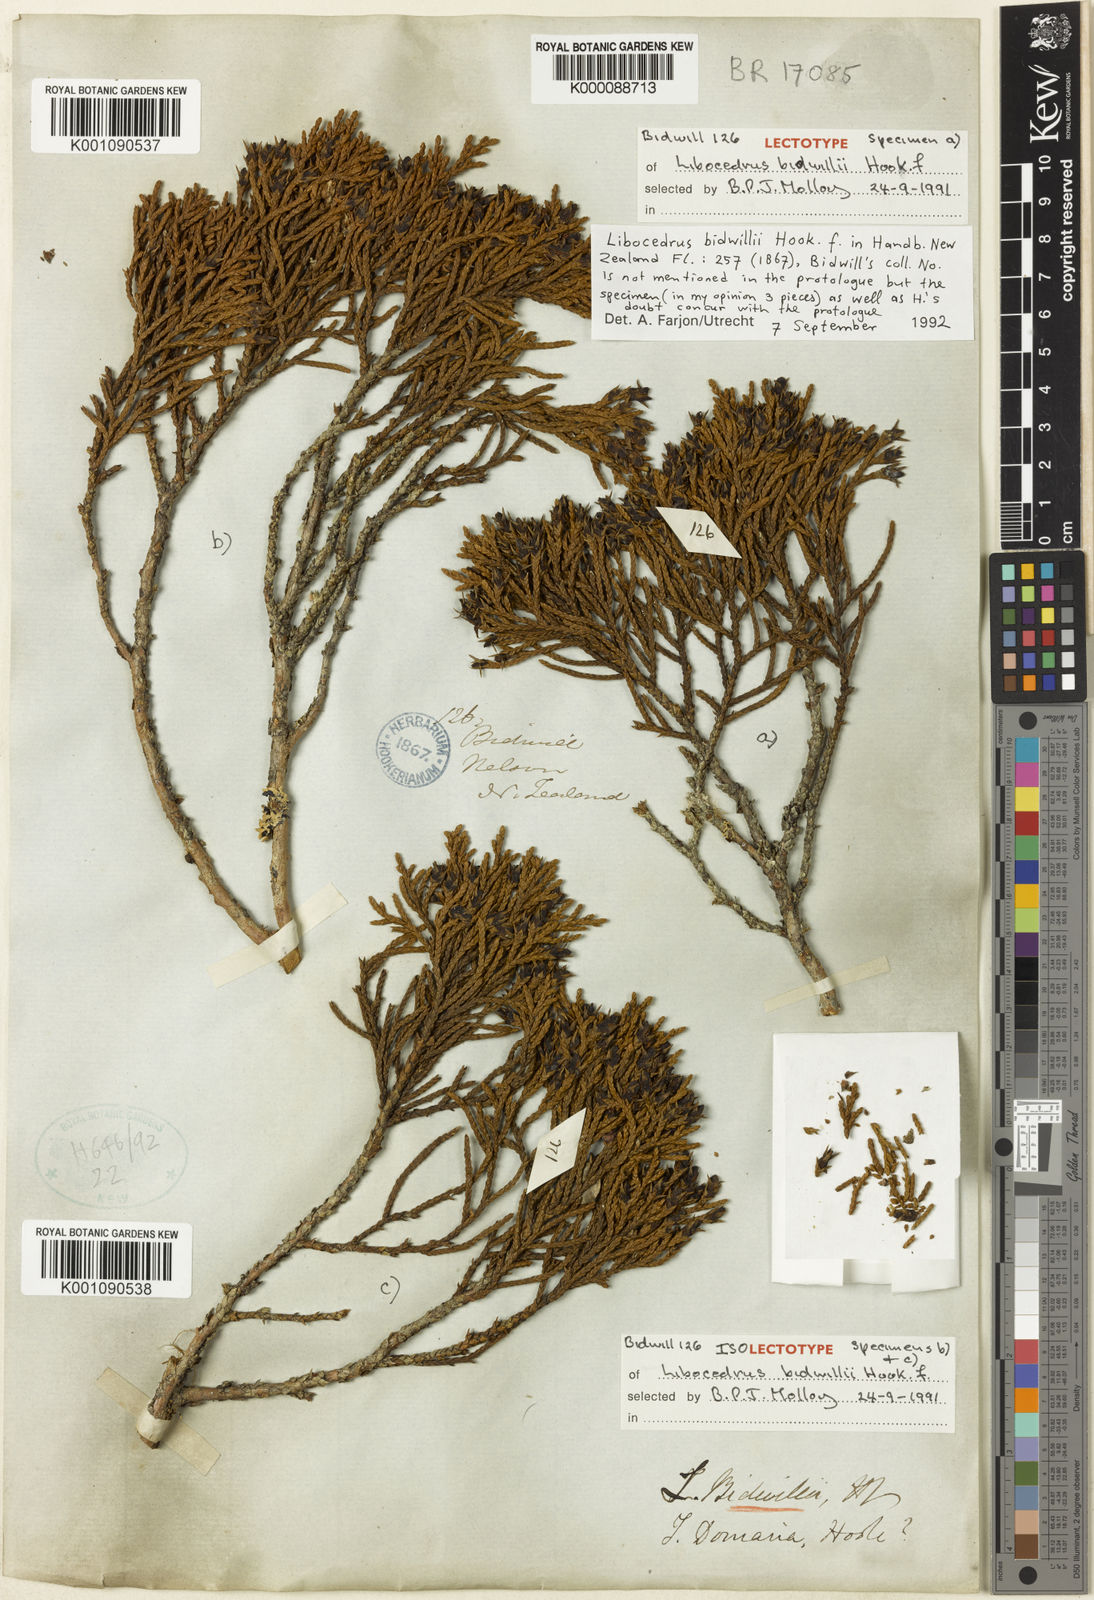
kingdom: Plantae
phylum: Tracheophyta
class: Pinopsida
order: Pinales
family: Cupressaceae
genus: Libocedrus
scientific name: Libocedrus bidwillii
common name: Cedar
